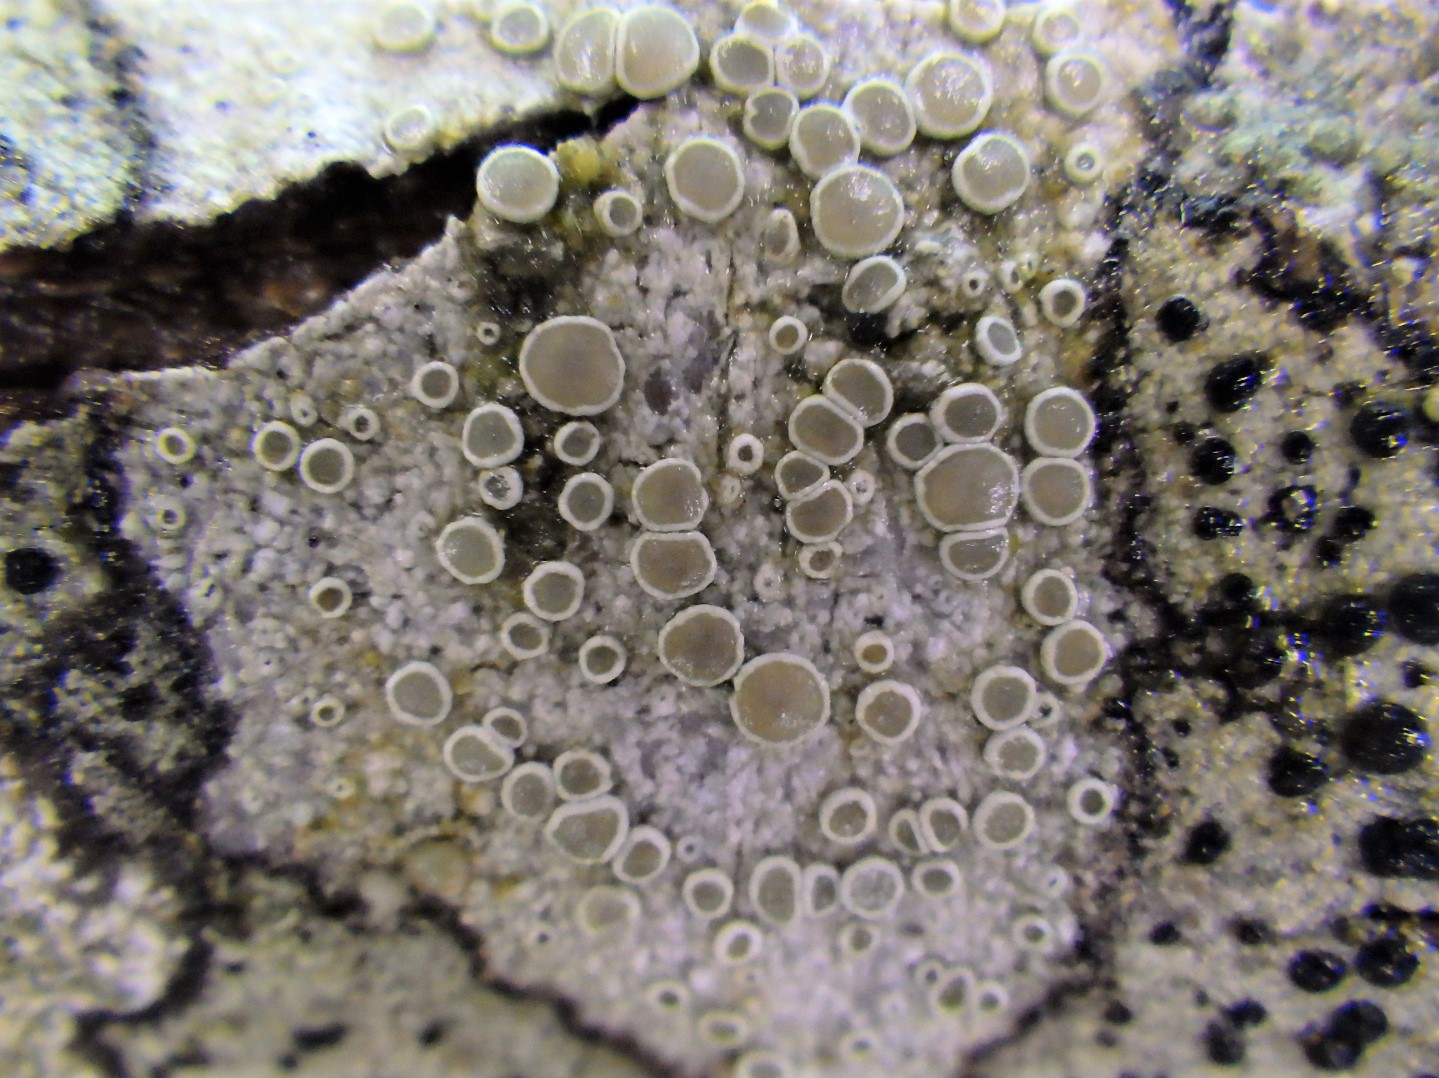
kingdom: Fungi
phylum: Ascomycota
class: Lecanoromycetes
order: Lecanorales
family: Lecanoraceae
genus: Lecanora
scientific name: Lecanora chlarotera
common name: brun kantskivelav
